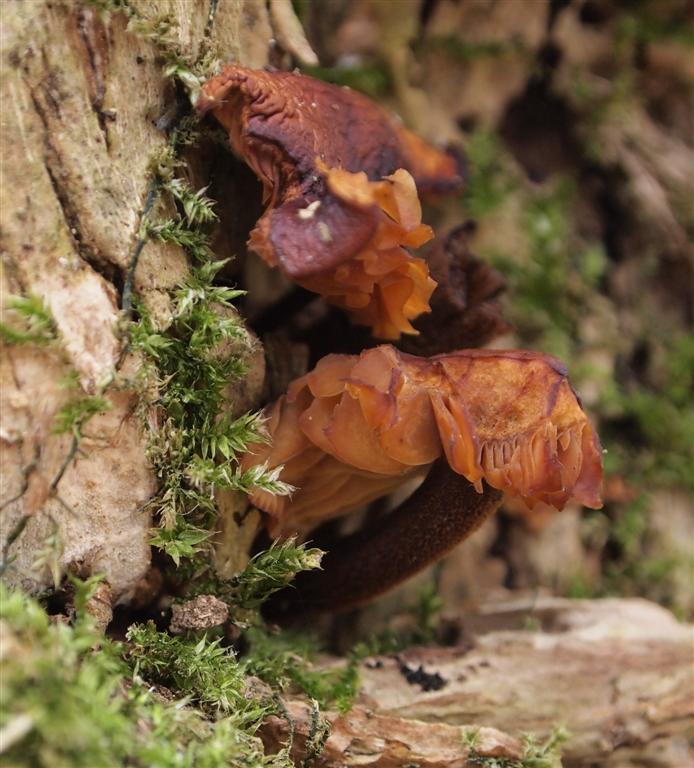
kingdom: Fungi
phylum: Basidiomycota
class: Agaricomycetes
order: Agaricales
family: Physalacriaceae
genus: Flammulina
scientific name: Flammulina velutipes
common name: gul fløjlsfod
